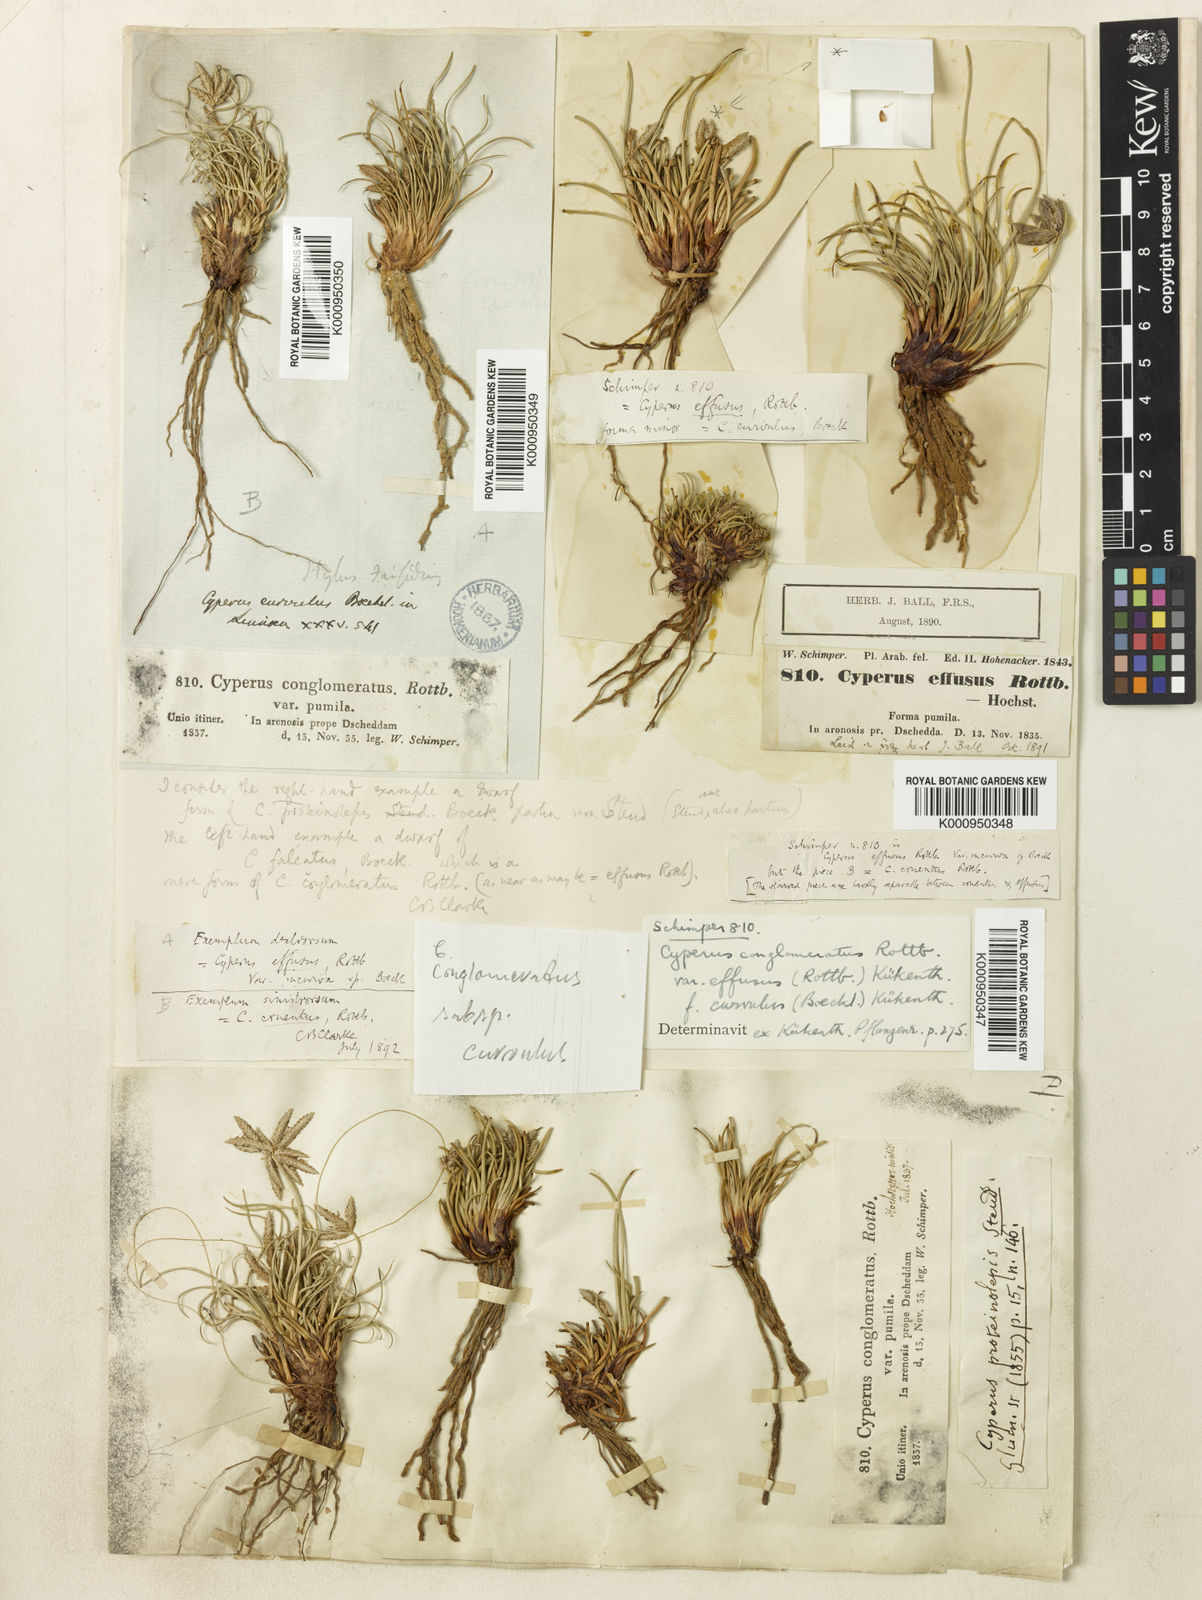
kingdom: Plantae
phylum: Tracheophyta
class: Liliopsida
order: Poales
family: Cyperaceae
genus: Cyperus
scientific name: Cyperus conglomeratus
